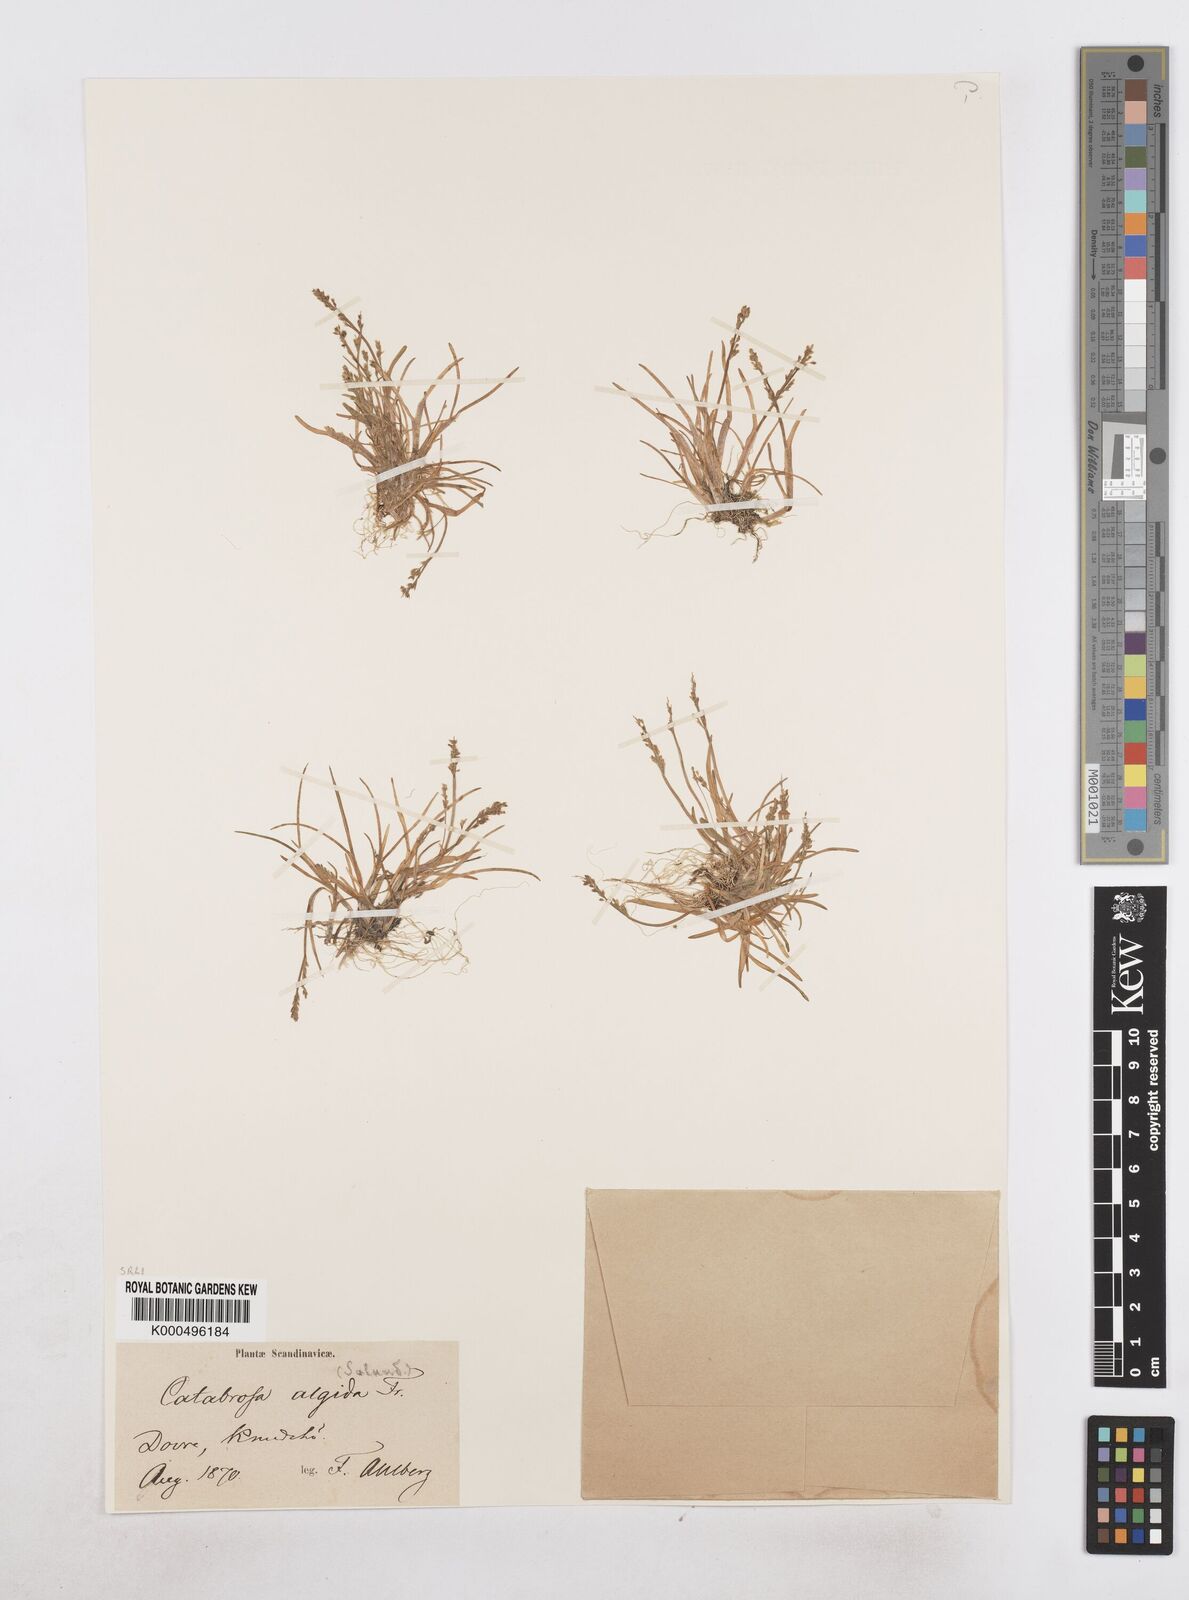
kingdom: Plantae
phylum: Tracheophyta
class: Liliopsida
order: Poales
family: Poaceae
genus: Phippsia
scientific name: Phippsia algida
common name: Ice grass
